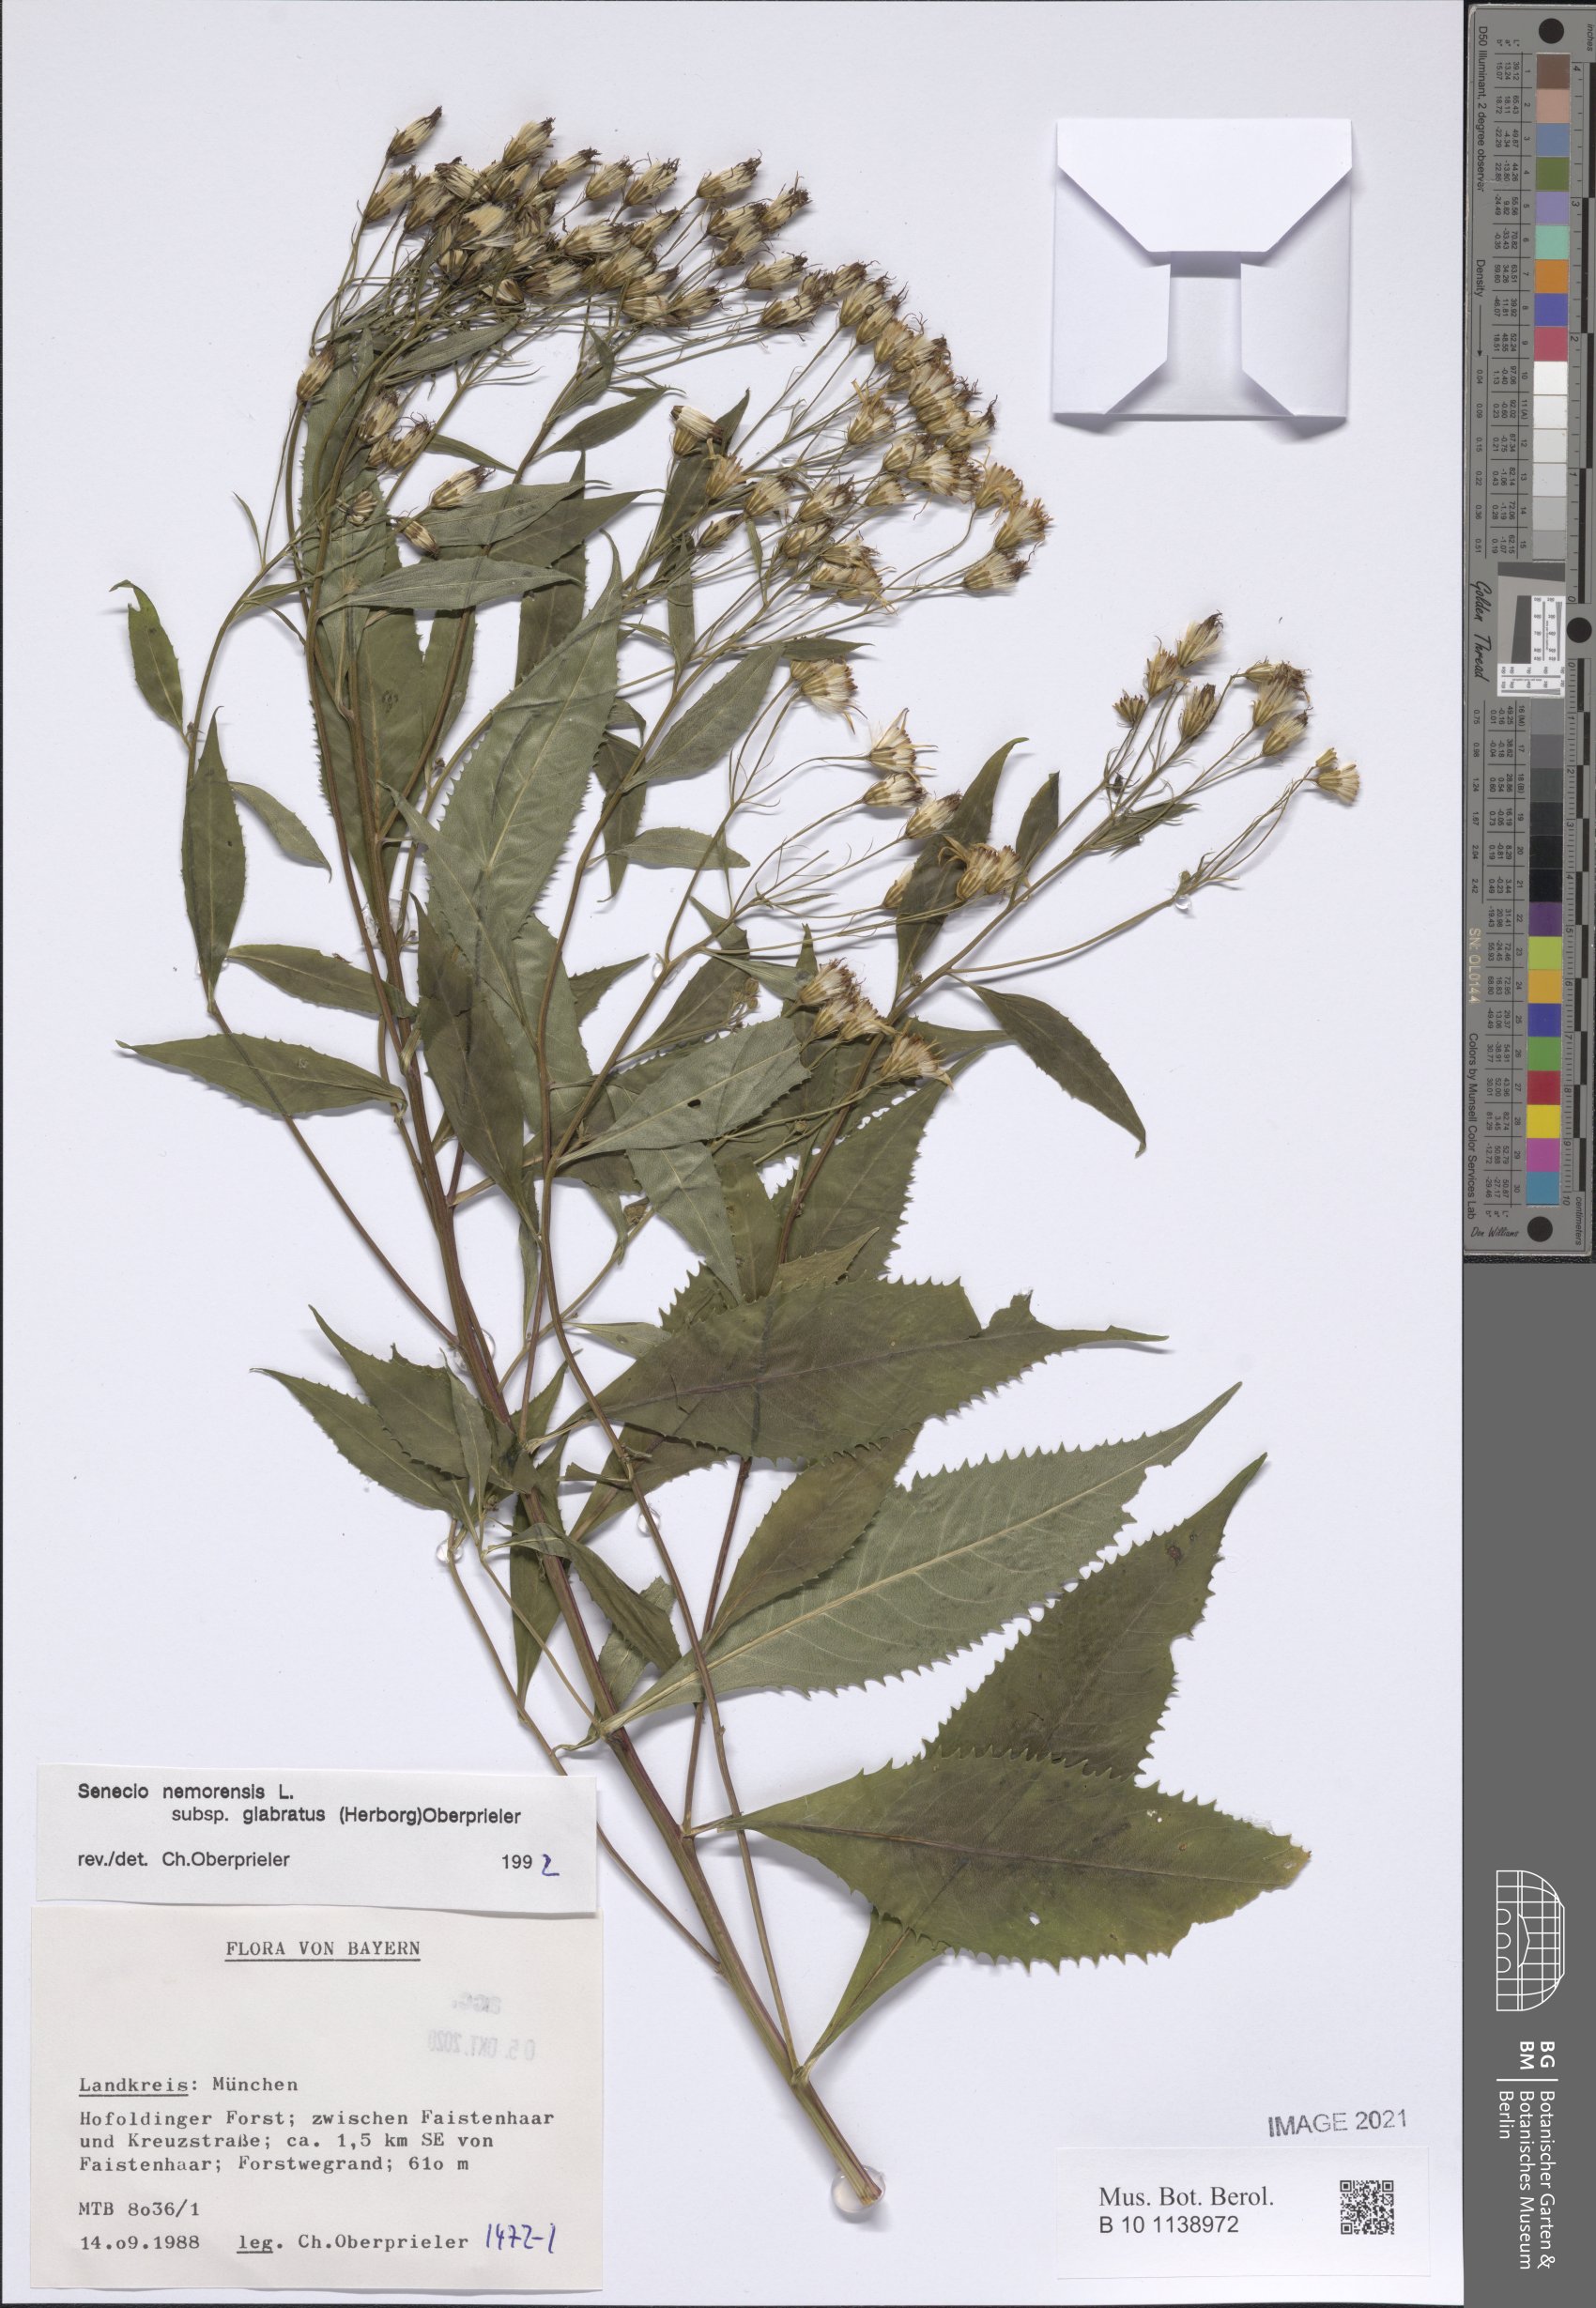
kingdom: Plantae
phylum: Tracheophyta
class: Magnoliopsida
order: Asterales
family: Asteraceae
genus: Senecio
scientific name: Senecio germanicus
